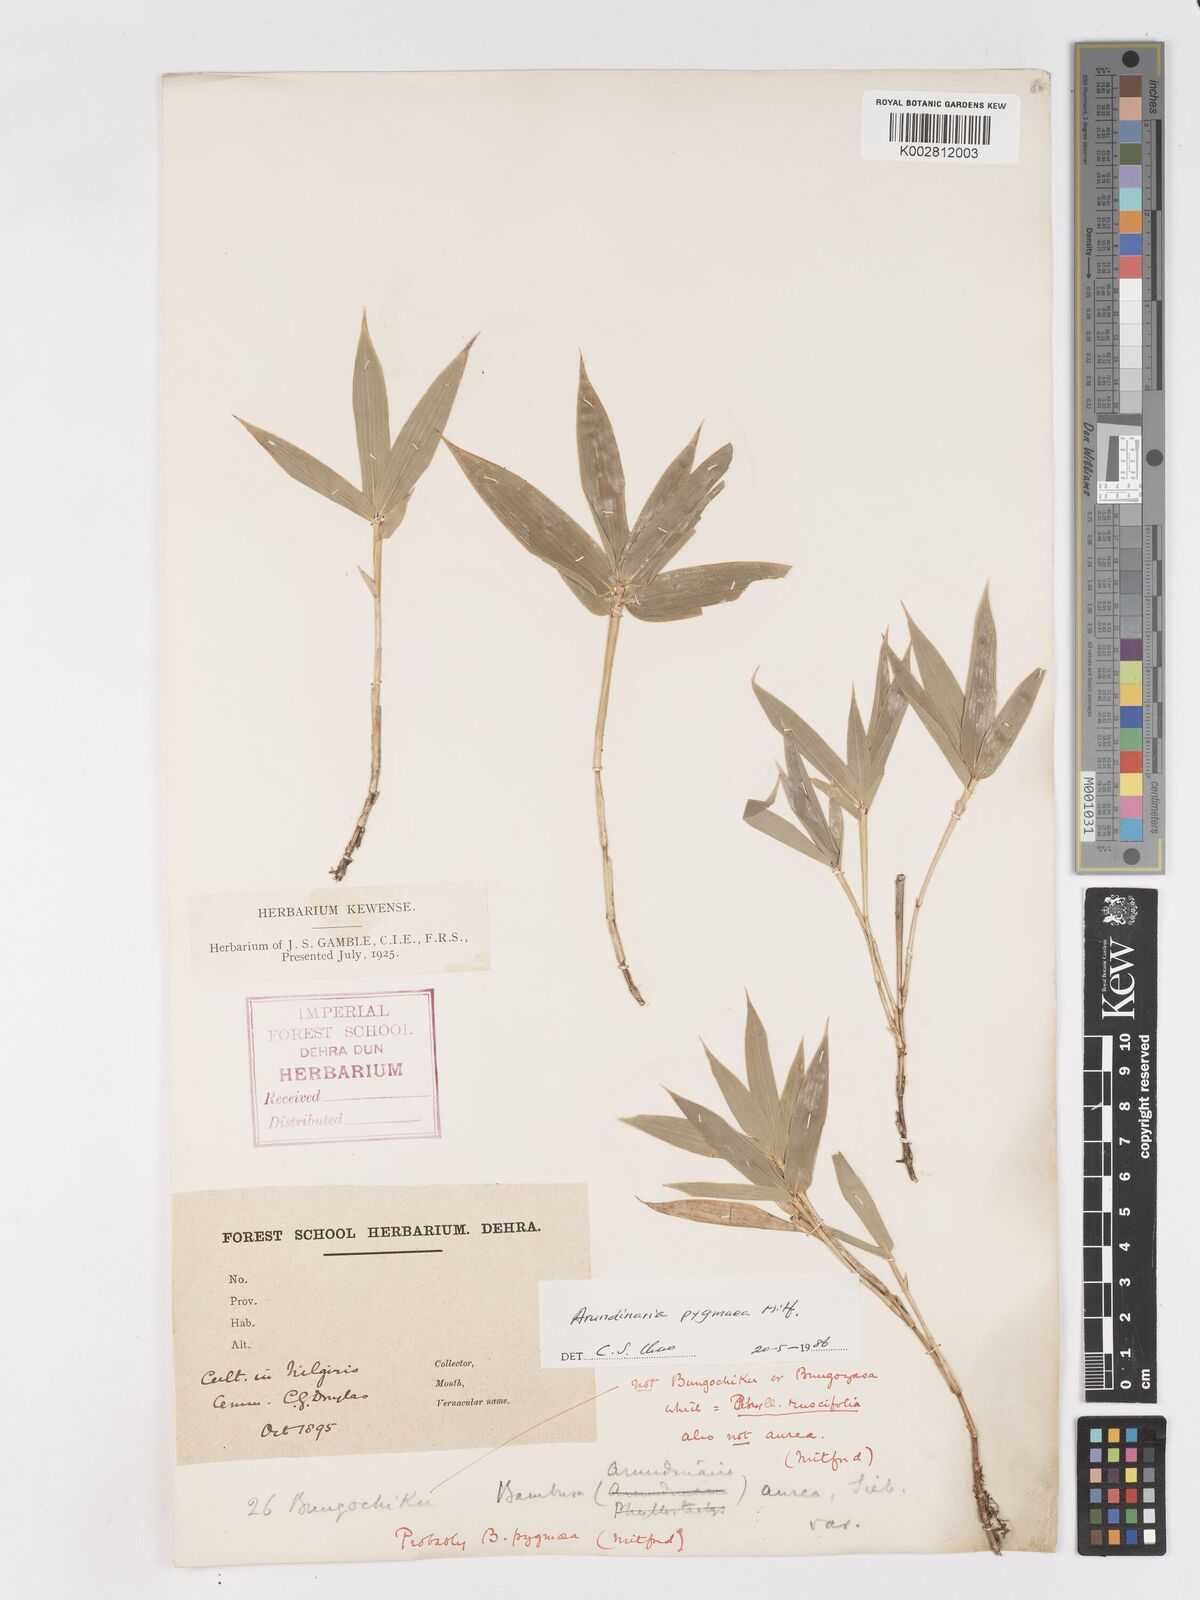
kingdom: Plantae
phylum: Tracheophyta
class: Liliopsida
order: Poales
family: Poaceae
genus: Pleioblastus
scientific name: Pleioblastus amarus
